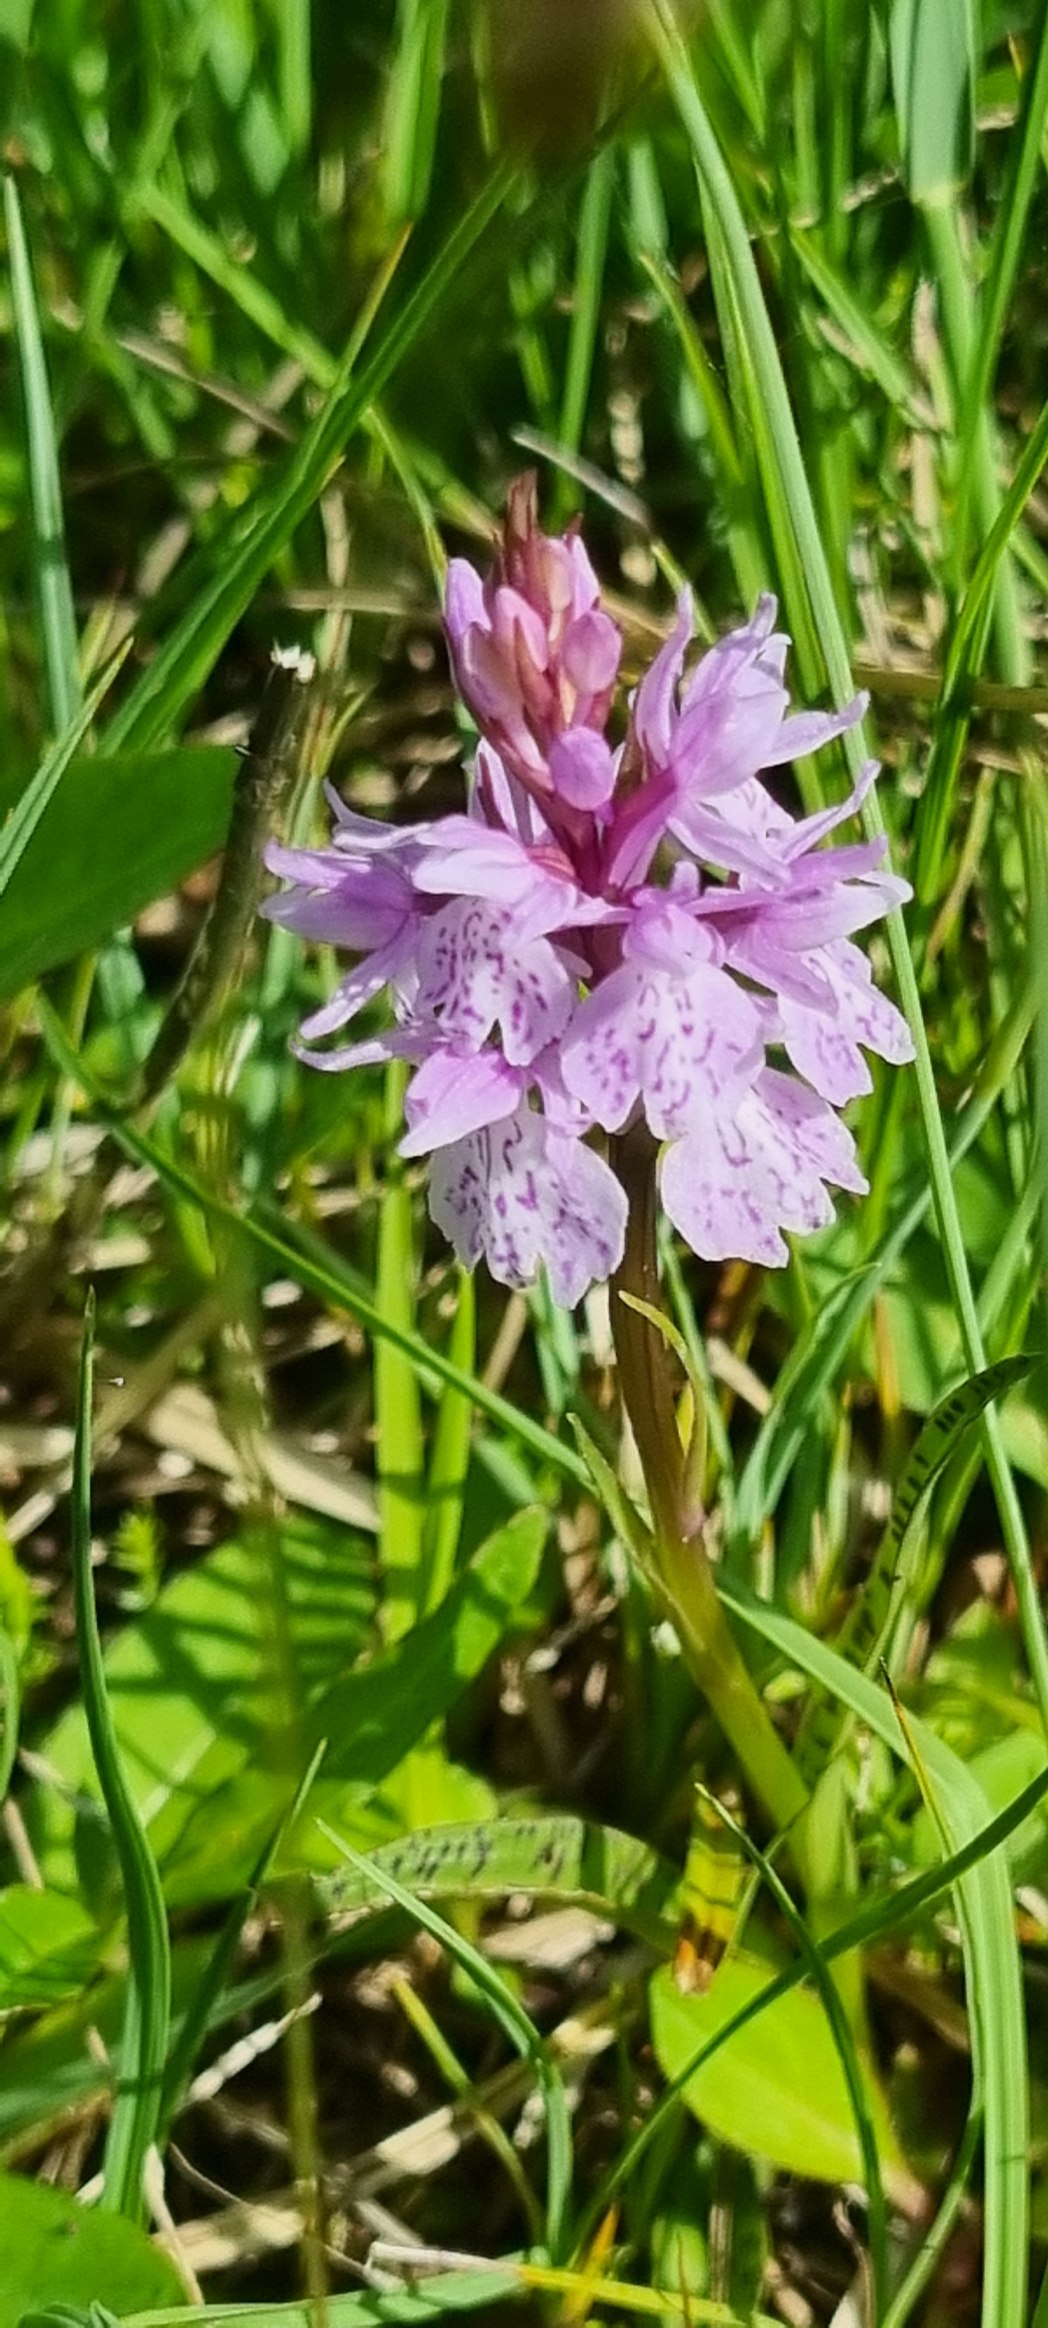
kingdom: Plantae
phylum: Tracheophyta
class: Liliopsida
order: Asparagales
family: Orchidaceae
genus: Dactylorhiza
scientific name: Dactylorhiza maculata
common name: Plettet gøgeurt
